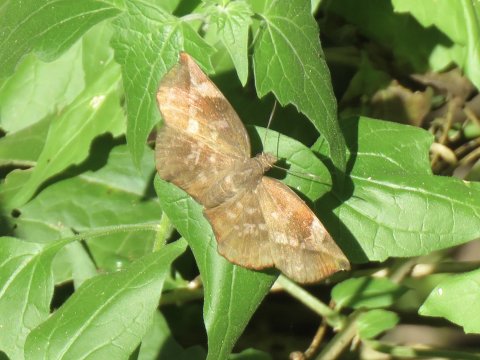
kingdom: Animalia
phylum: Arthropoda
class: Insecta
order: Lepidoptera
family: Hesperiidae
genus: Achlyodes
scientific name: Achlyodes thraso
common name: Sickle-winged Skipper
